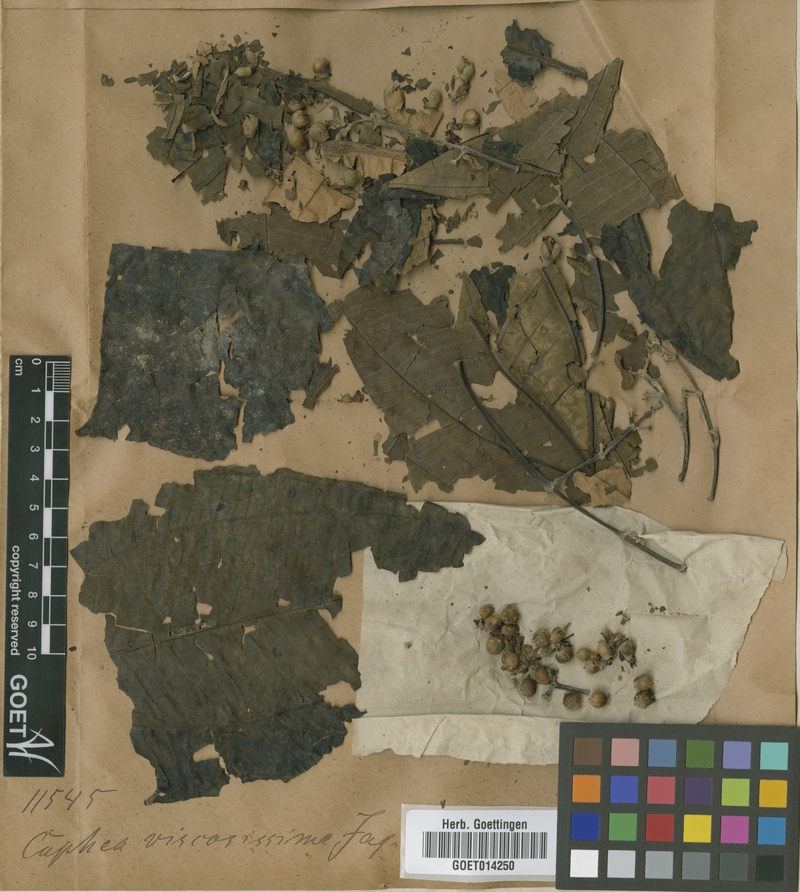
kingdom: Plantae
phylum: Tracheophyta
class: Magnoliopsida
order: Myrtales
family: Melastomataceae
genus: Miconia
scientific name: Miconia plukenetii
